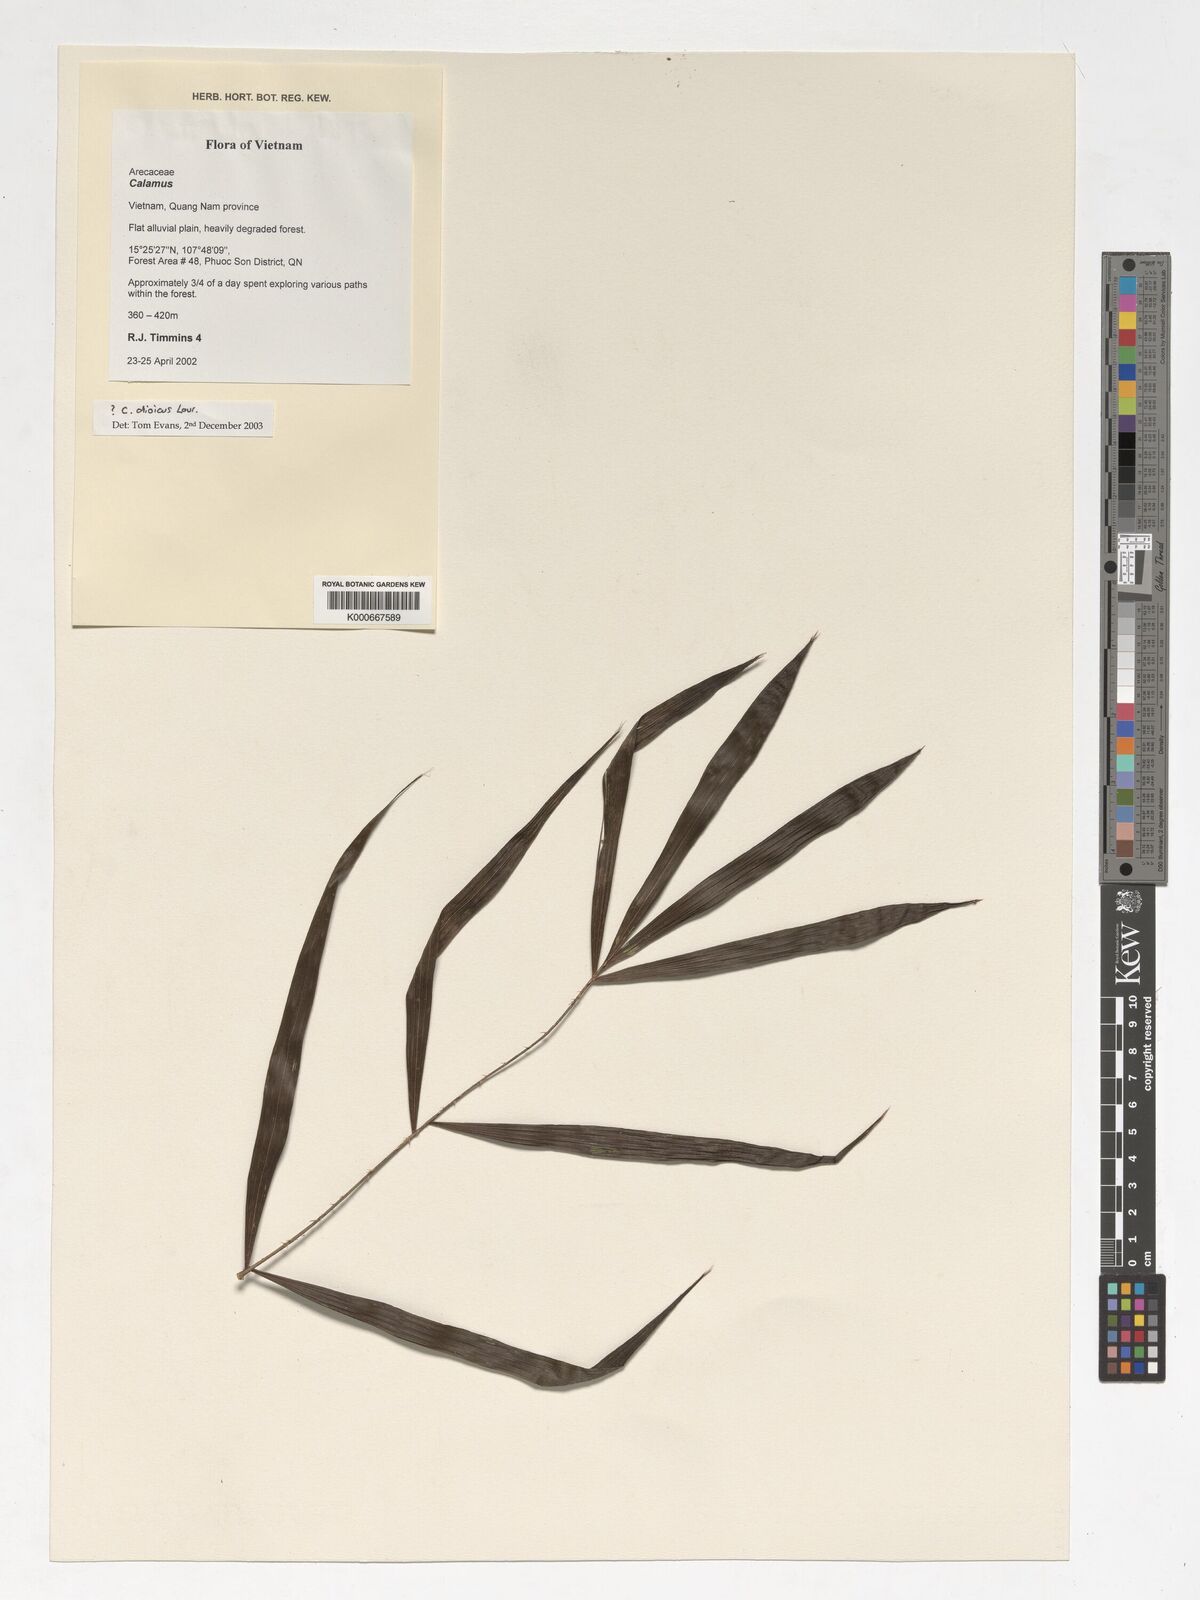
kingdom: Plantae
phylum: Tracheophyta
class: Liliopsida
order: Arecales
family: Arecaceae
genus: Calamus
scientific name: Calamus dioicus
